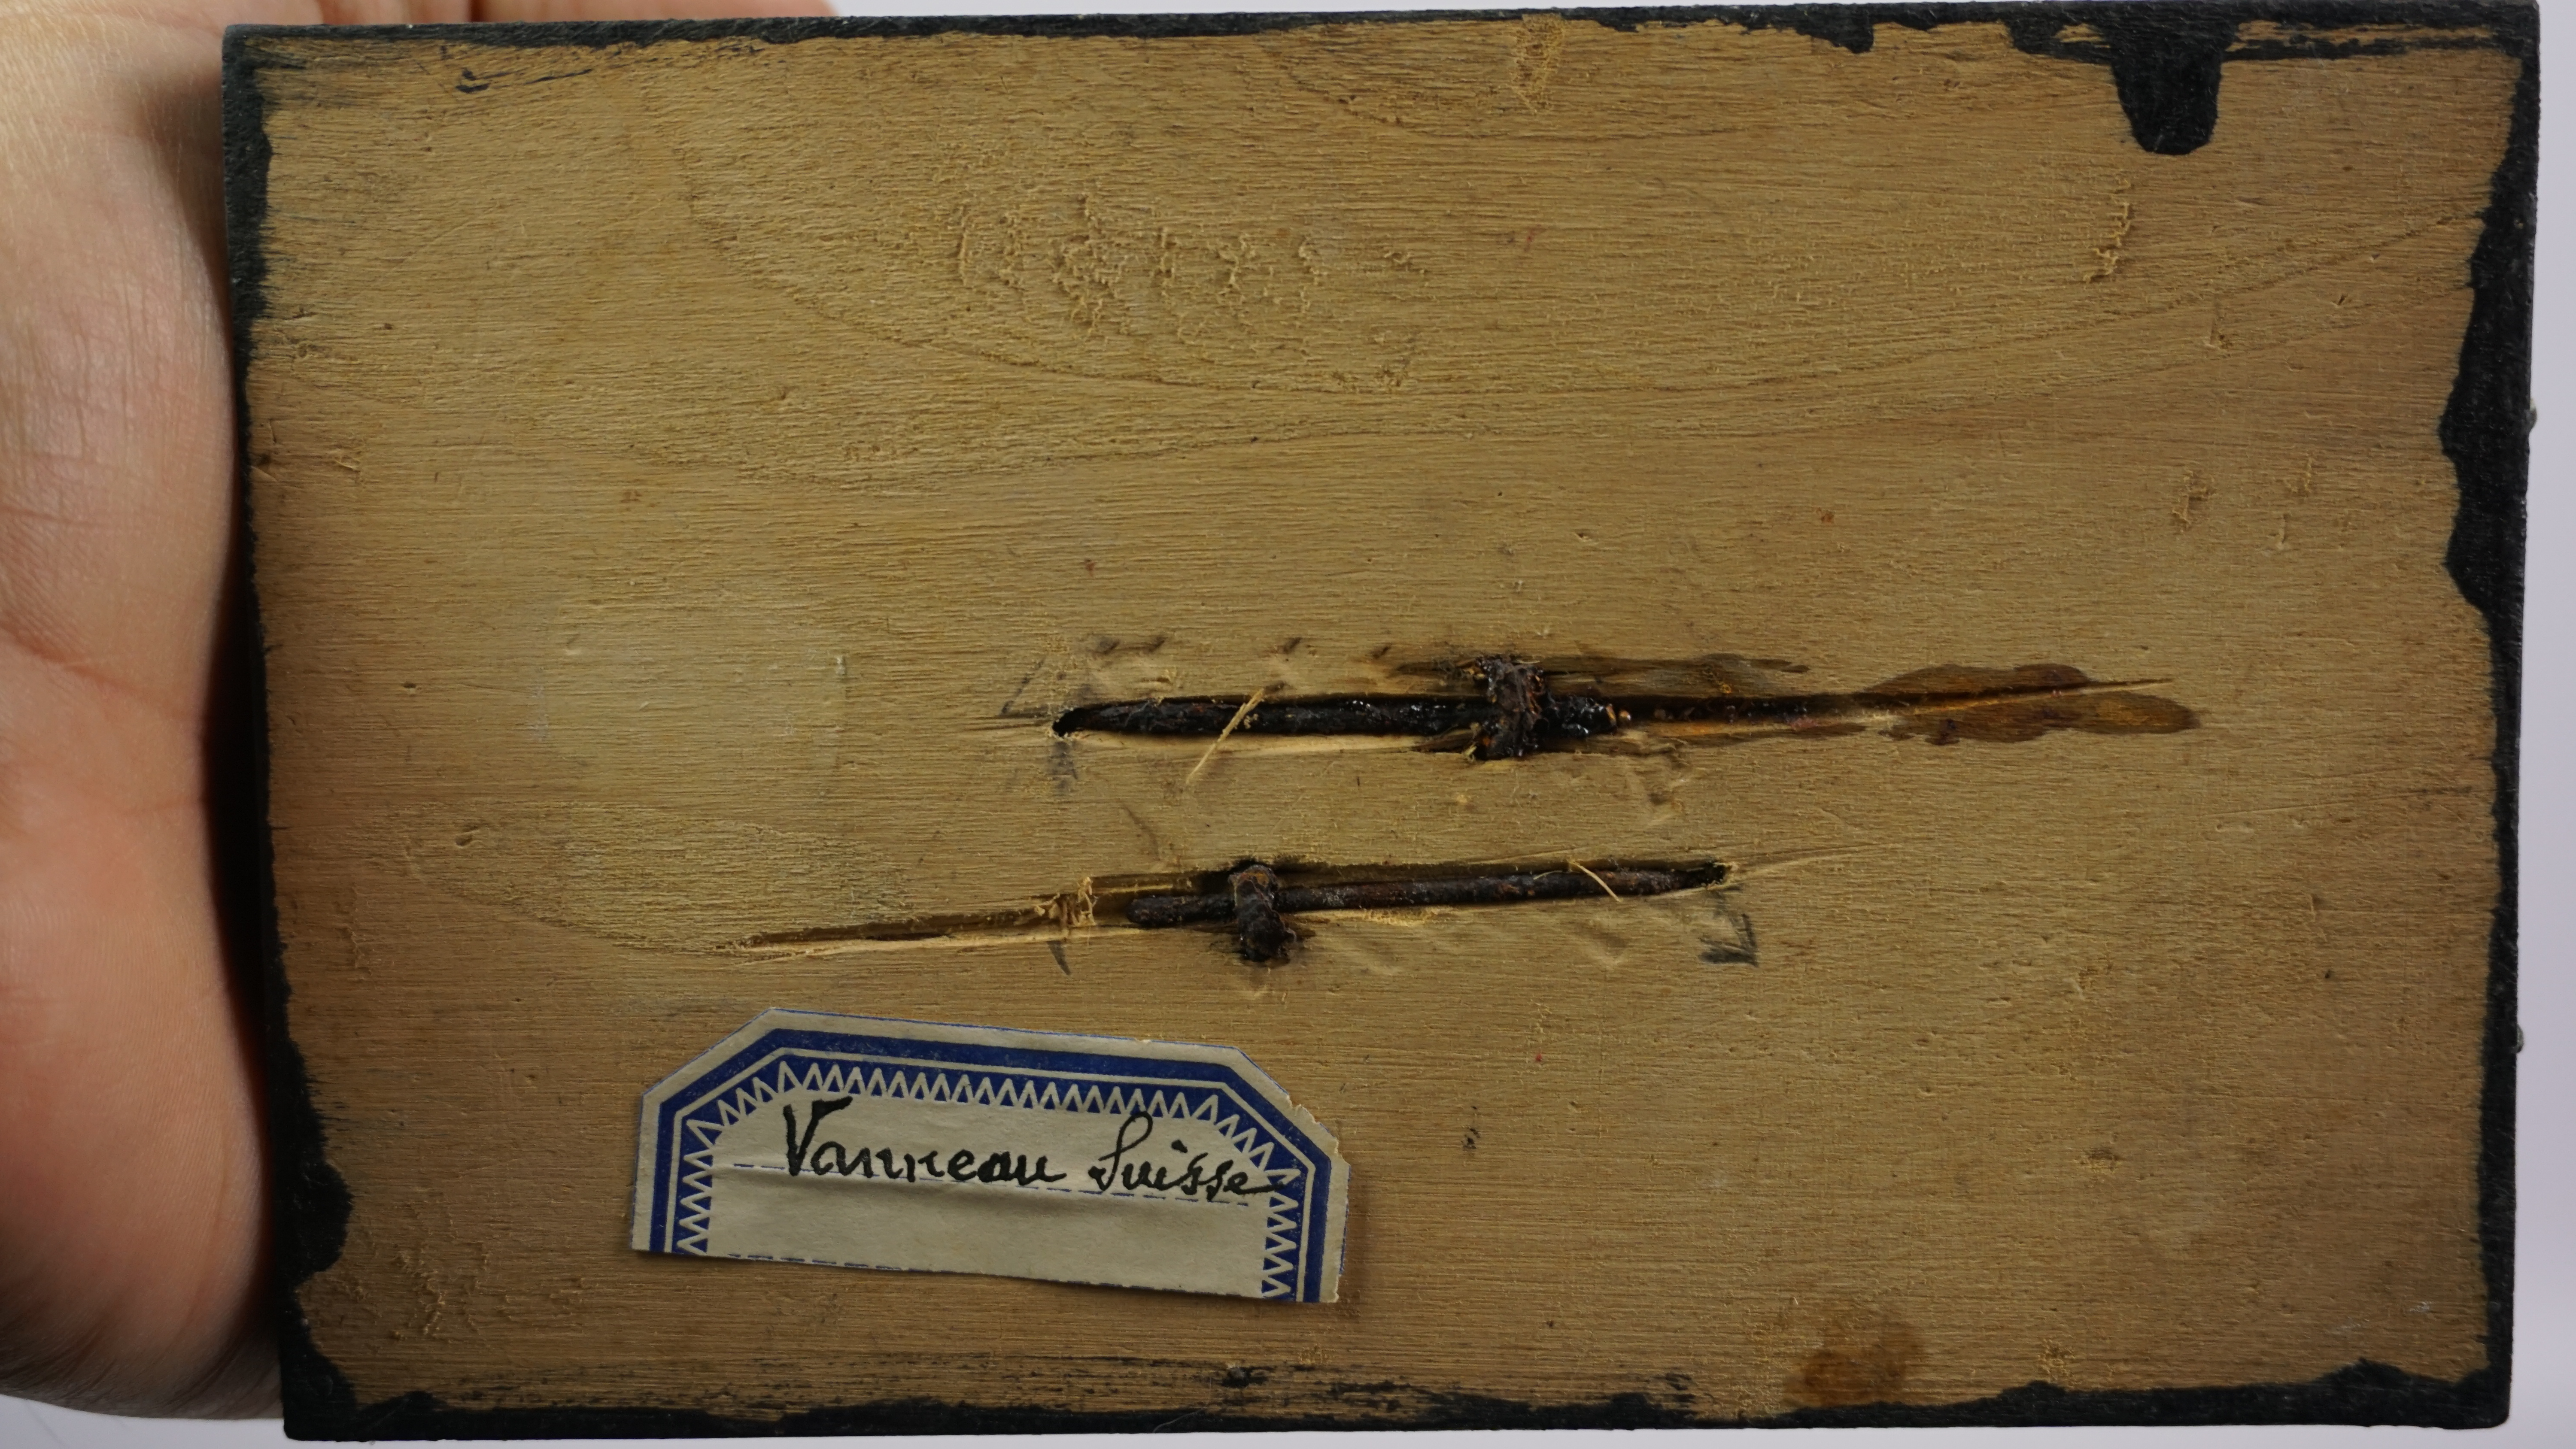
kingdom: Animalia
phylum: Chordata
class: Aves
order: Charadriiformes
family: Charadriidae
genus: Pluvialis
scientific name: Pluvialis squatarola
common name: Grey plover
